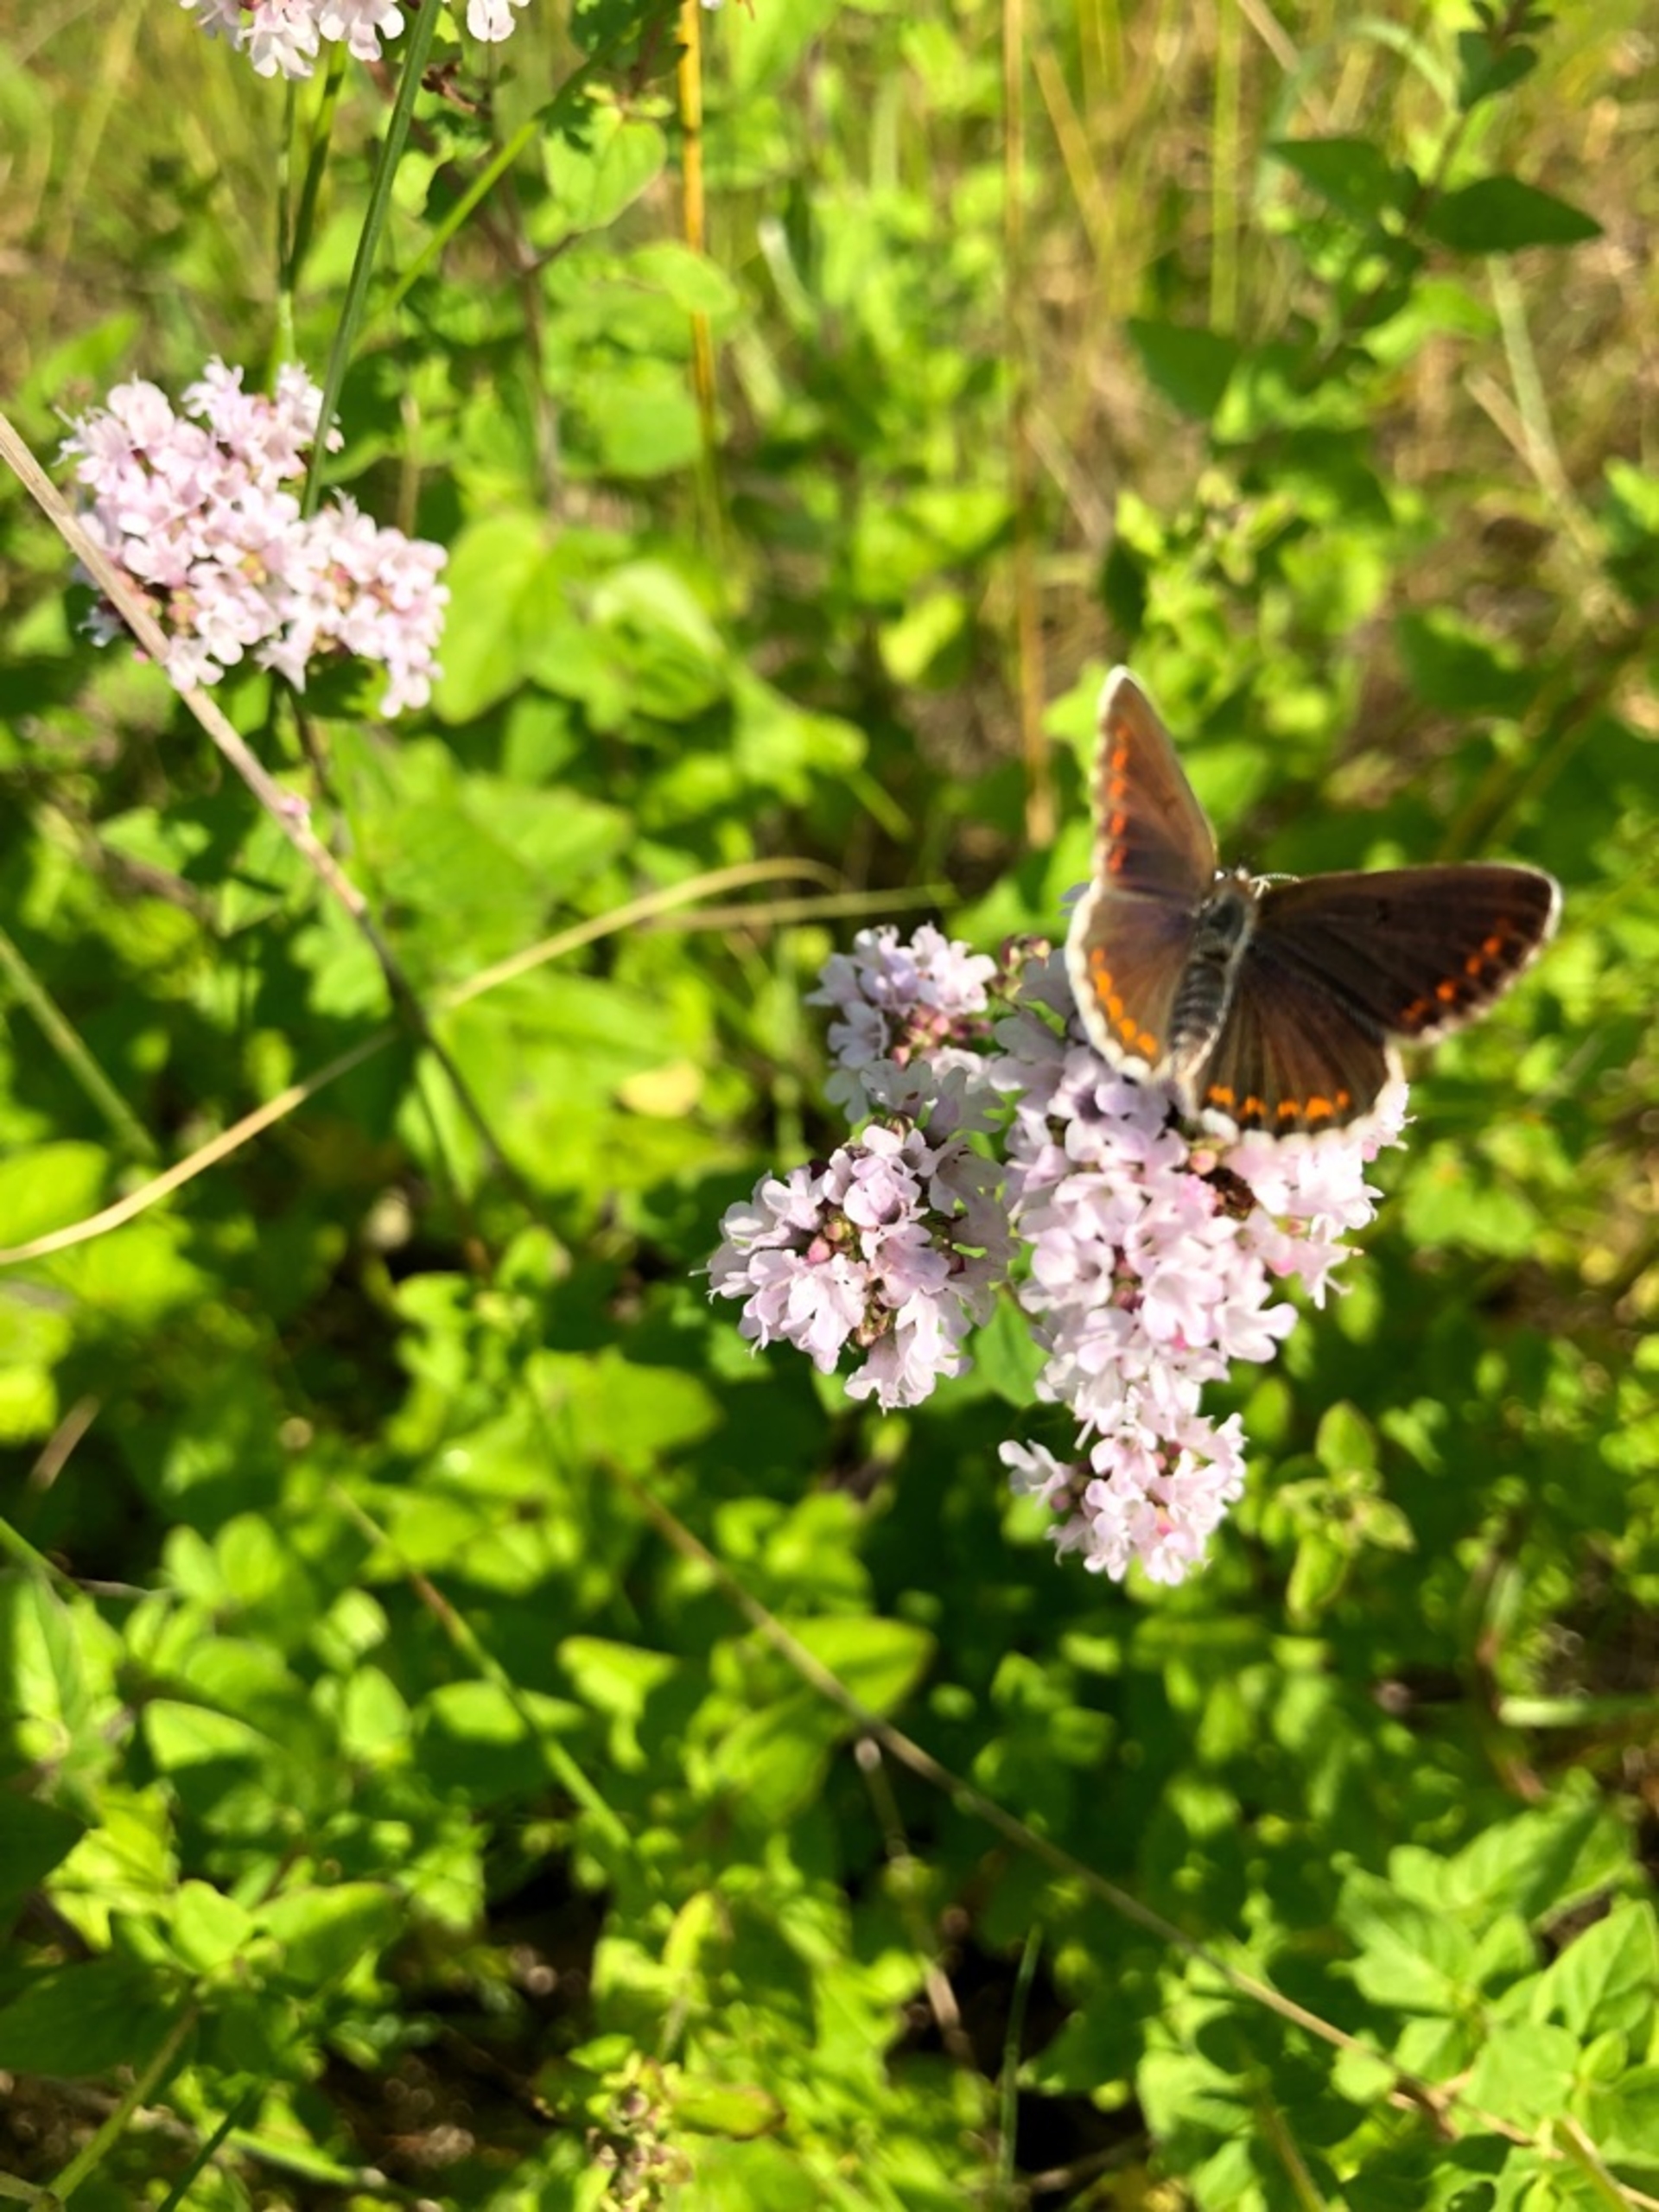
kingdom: Animalia
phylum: Arthropoda
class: Insecta
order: Lepidoptera
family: Lycaenidae
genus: Aricia
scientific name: Aricia agestis
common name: Rødplettet blåfugl
